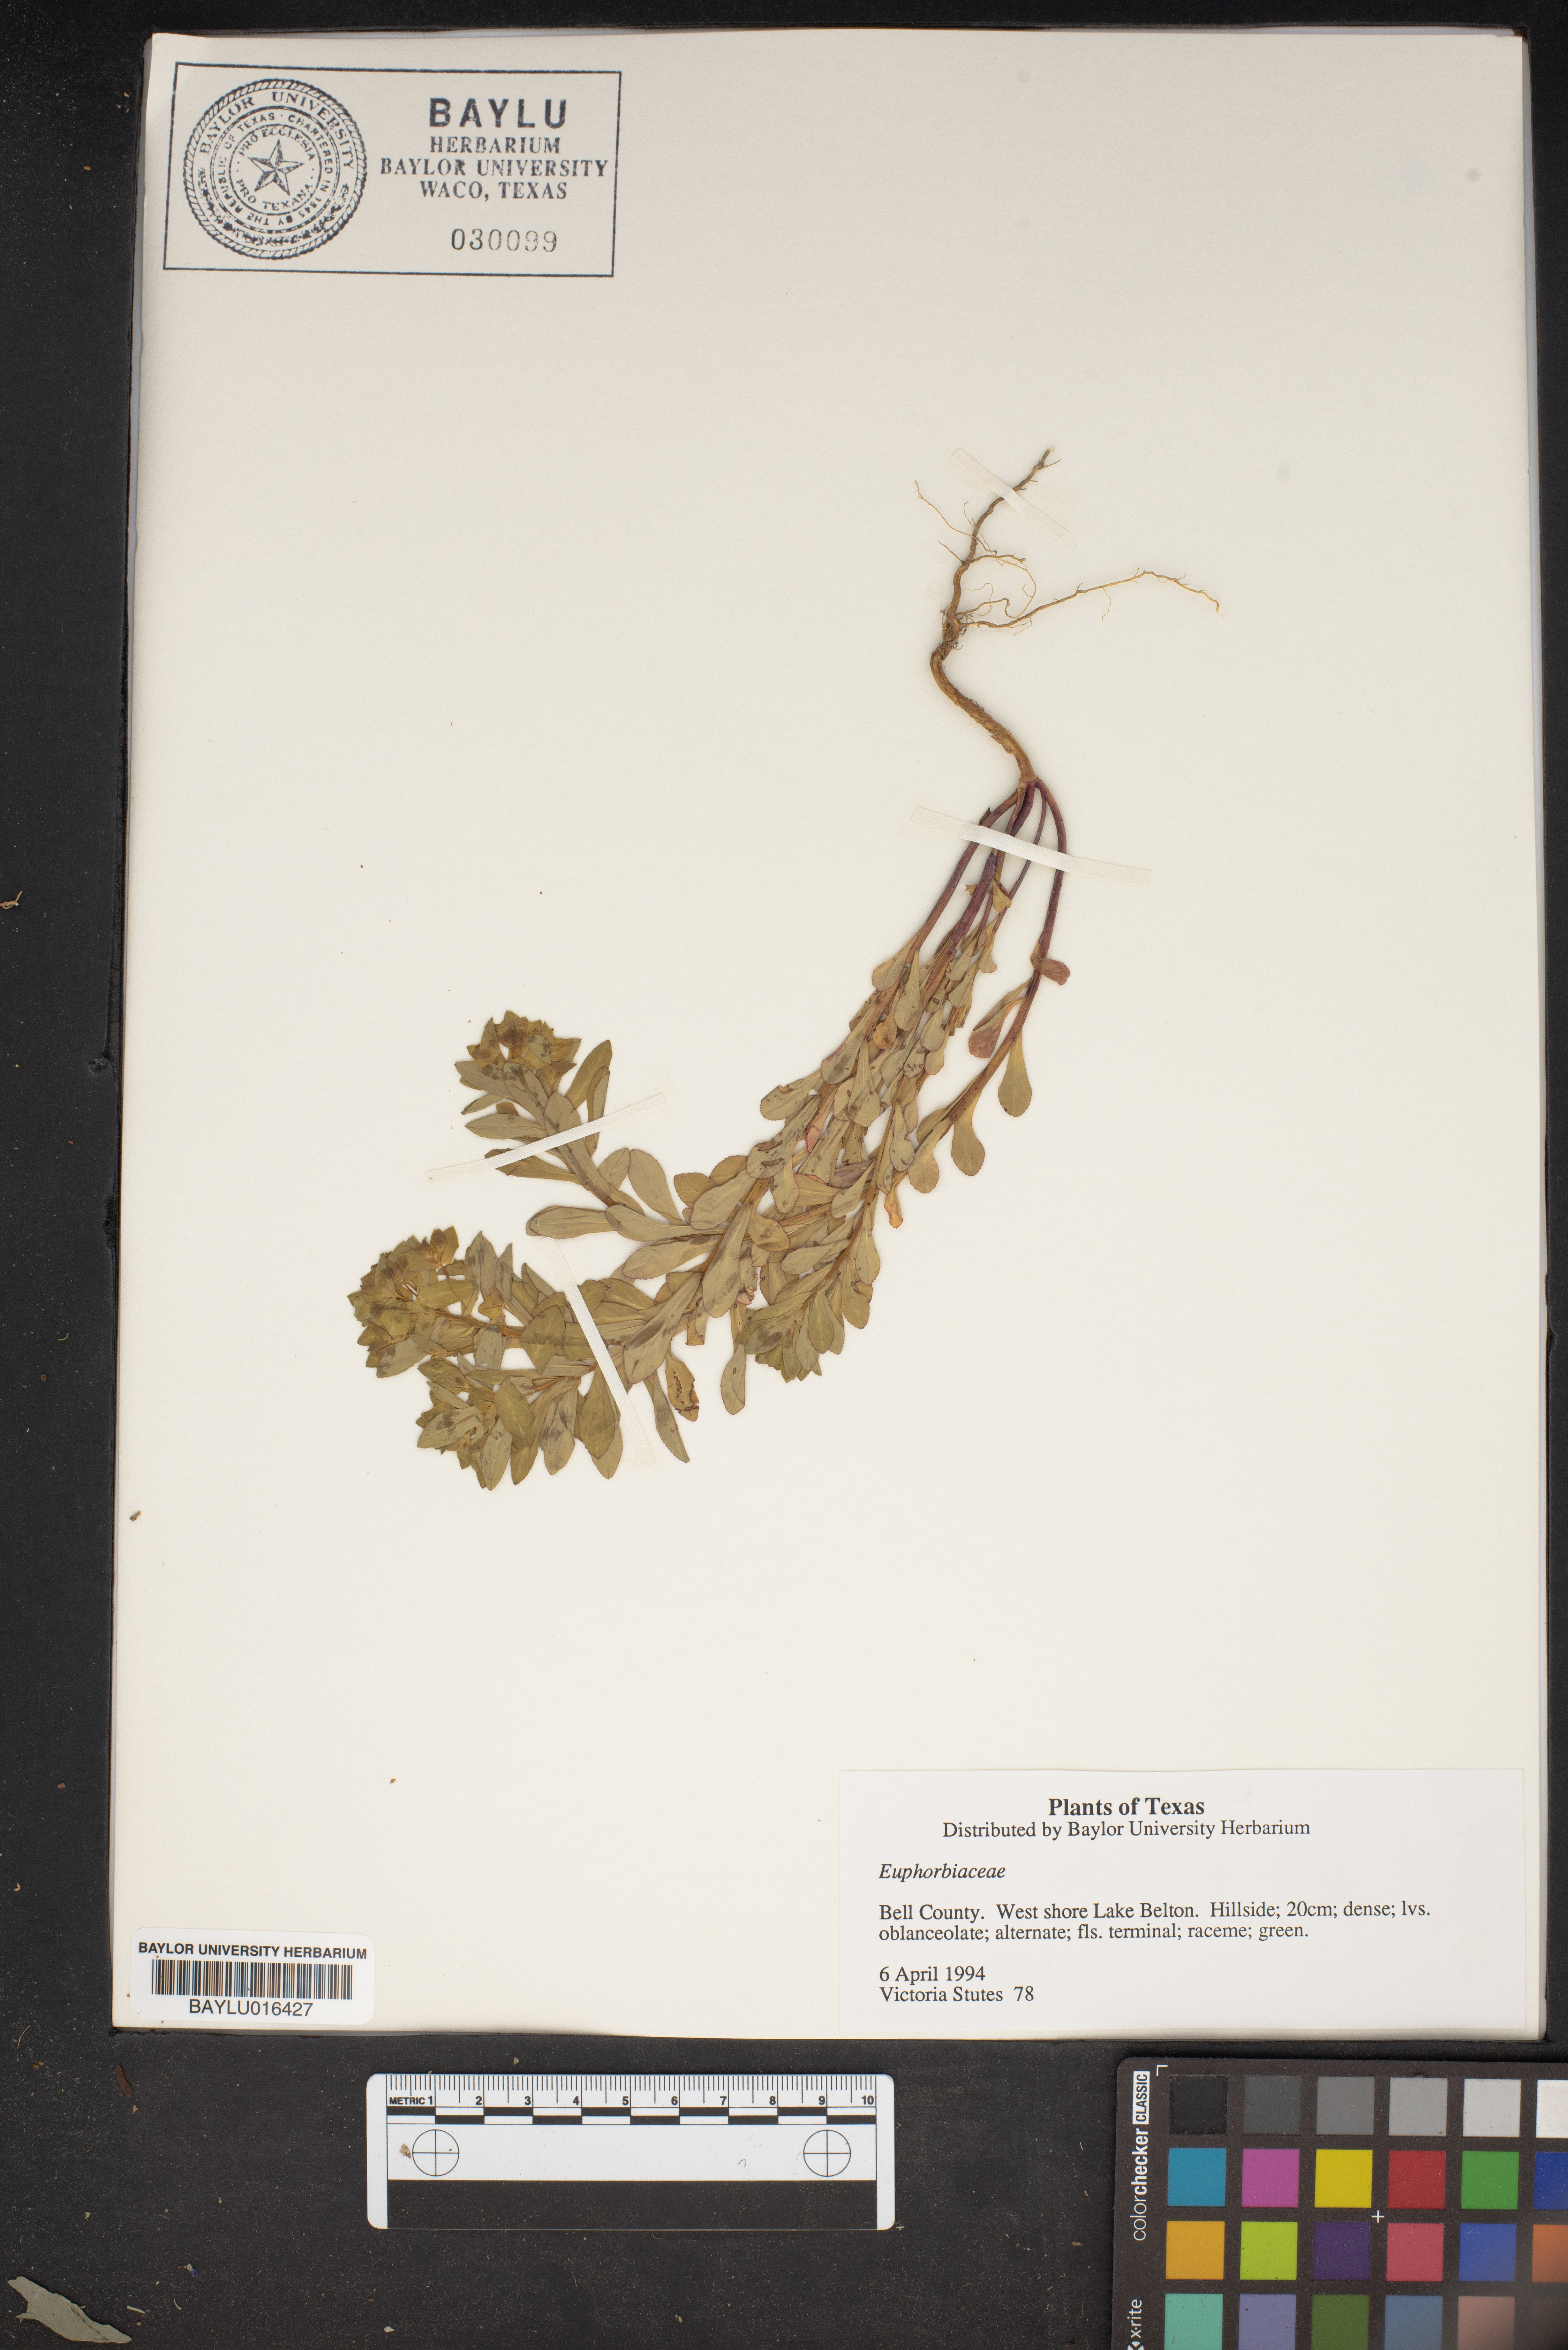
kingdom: Plantae
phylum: Tracheophyta
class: Magnoliopsida
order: Malpighiales
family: Euphorbiaceae
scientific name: Euphorbiaceae
